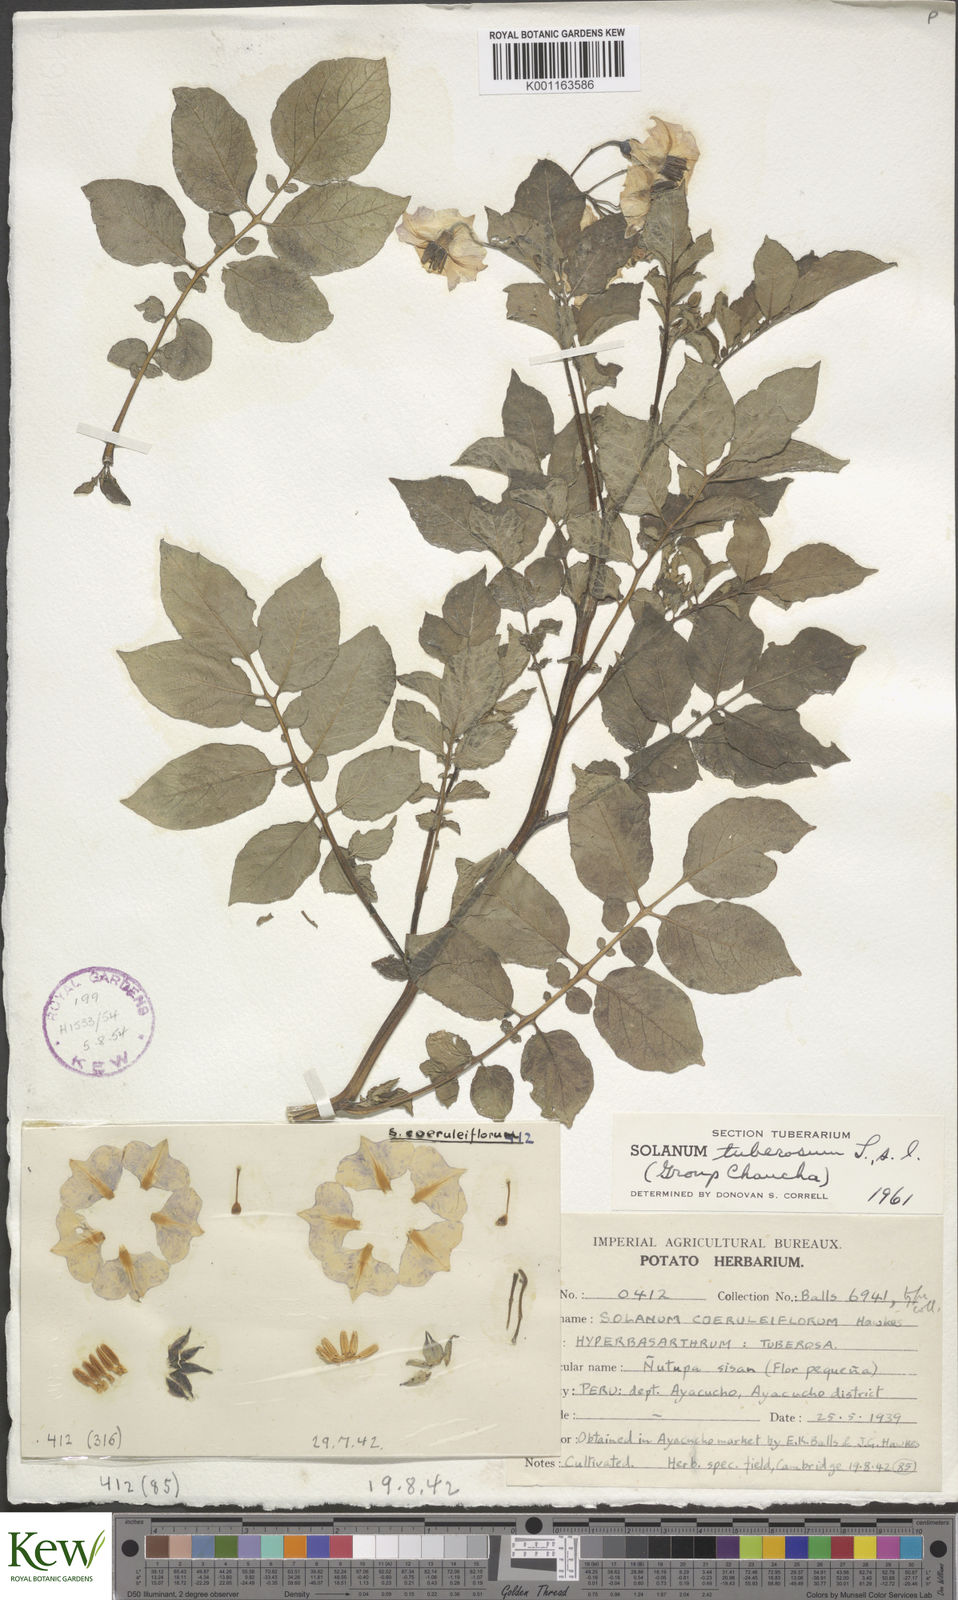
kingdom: Plantae
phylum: Tracheophyta
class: Magnoliopsida
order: Solanales
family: Solanaceae
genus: Solanum
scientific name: Solanum
